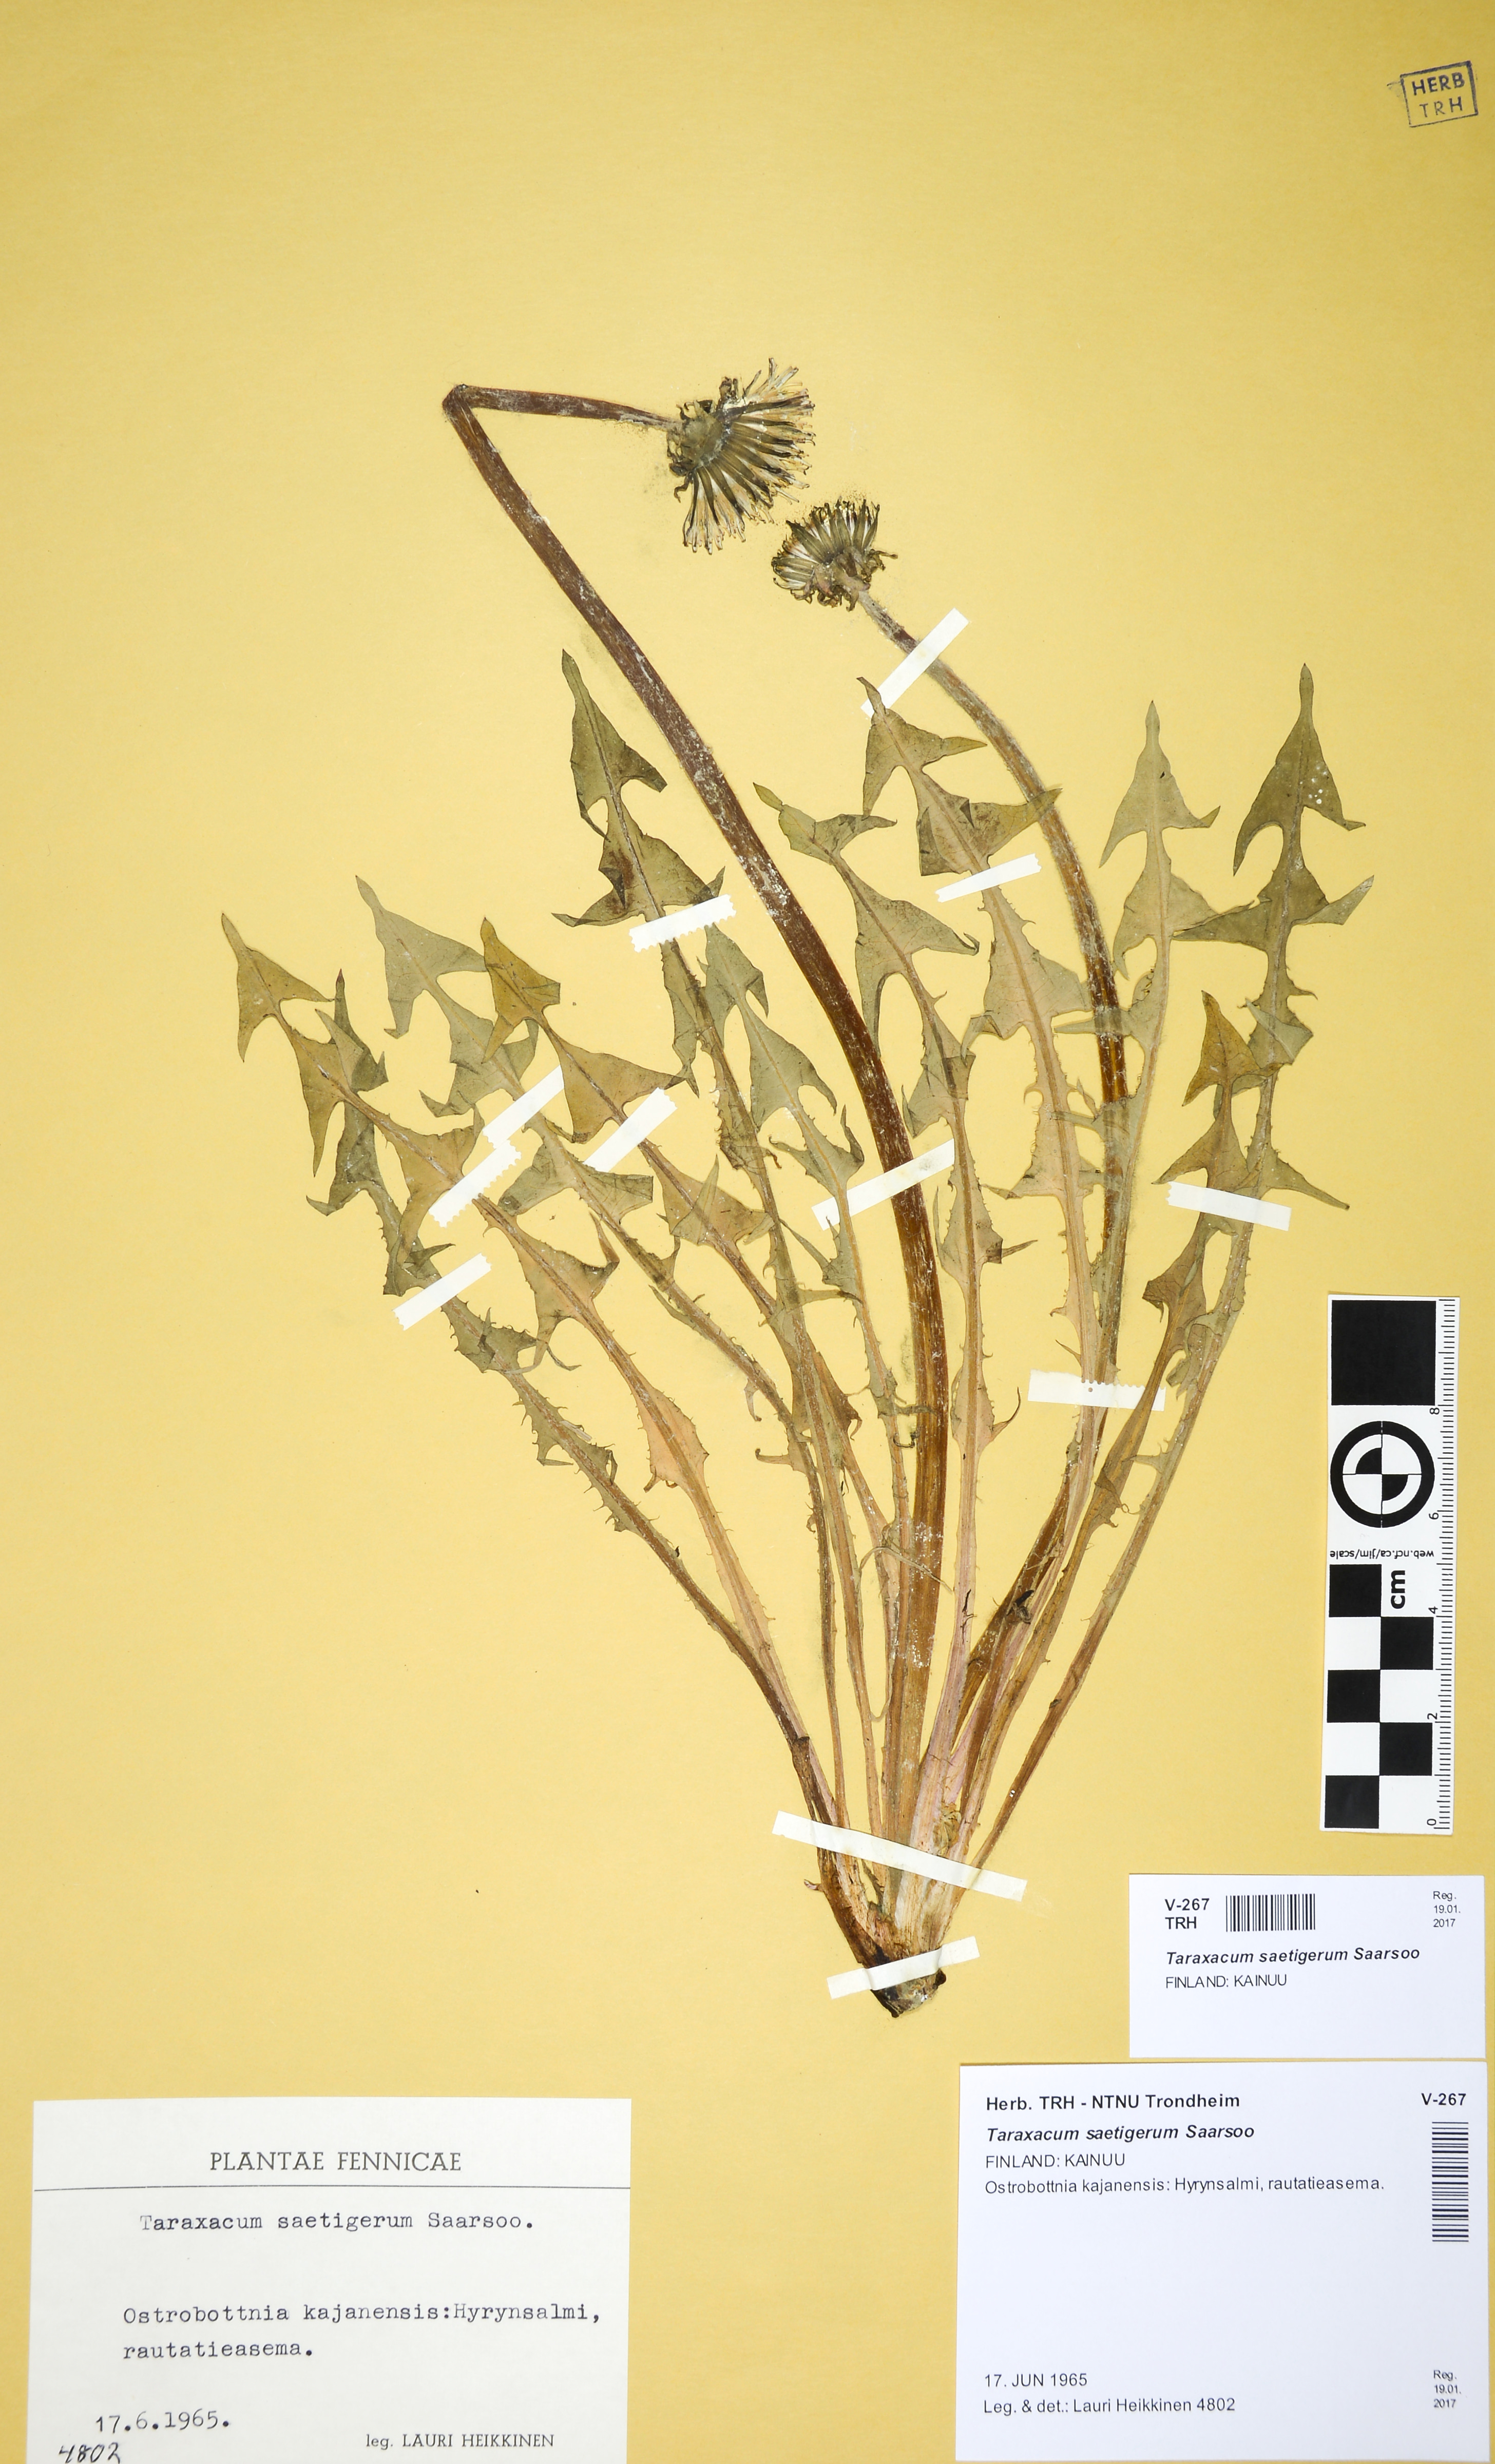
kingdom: Plantae
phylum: Tracheophyta
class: Magnoliopsida
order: Asterales
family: Asteraceae
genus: Taraxacum
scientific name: Taraxacum saetigerum
